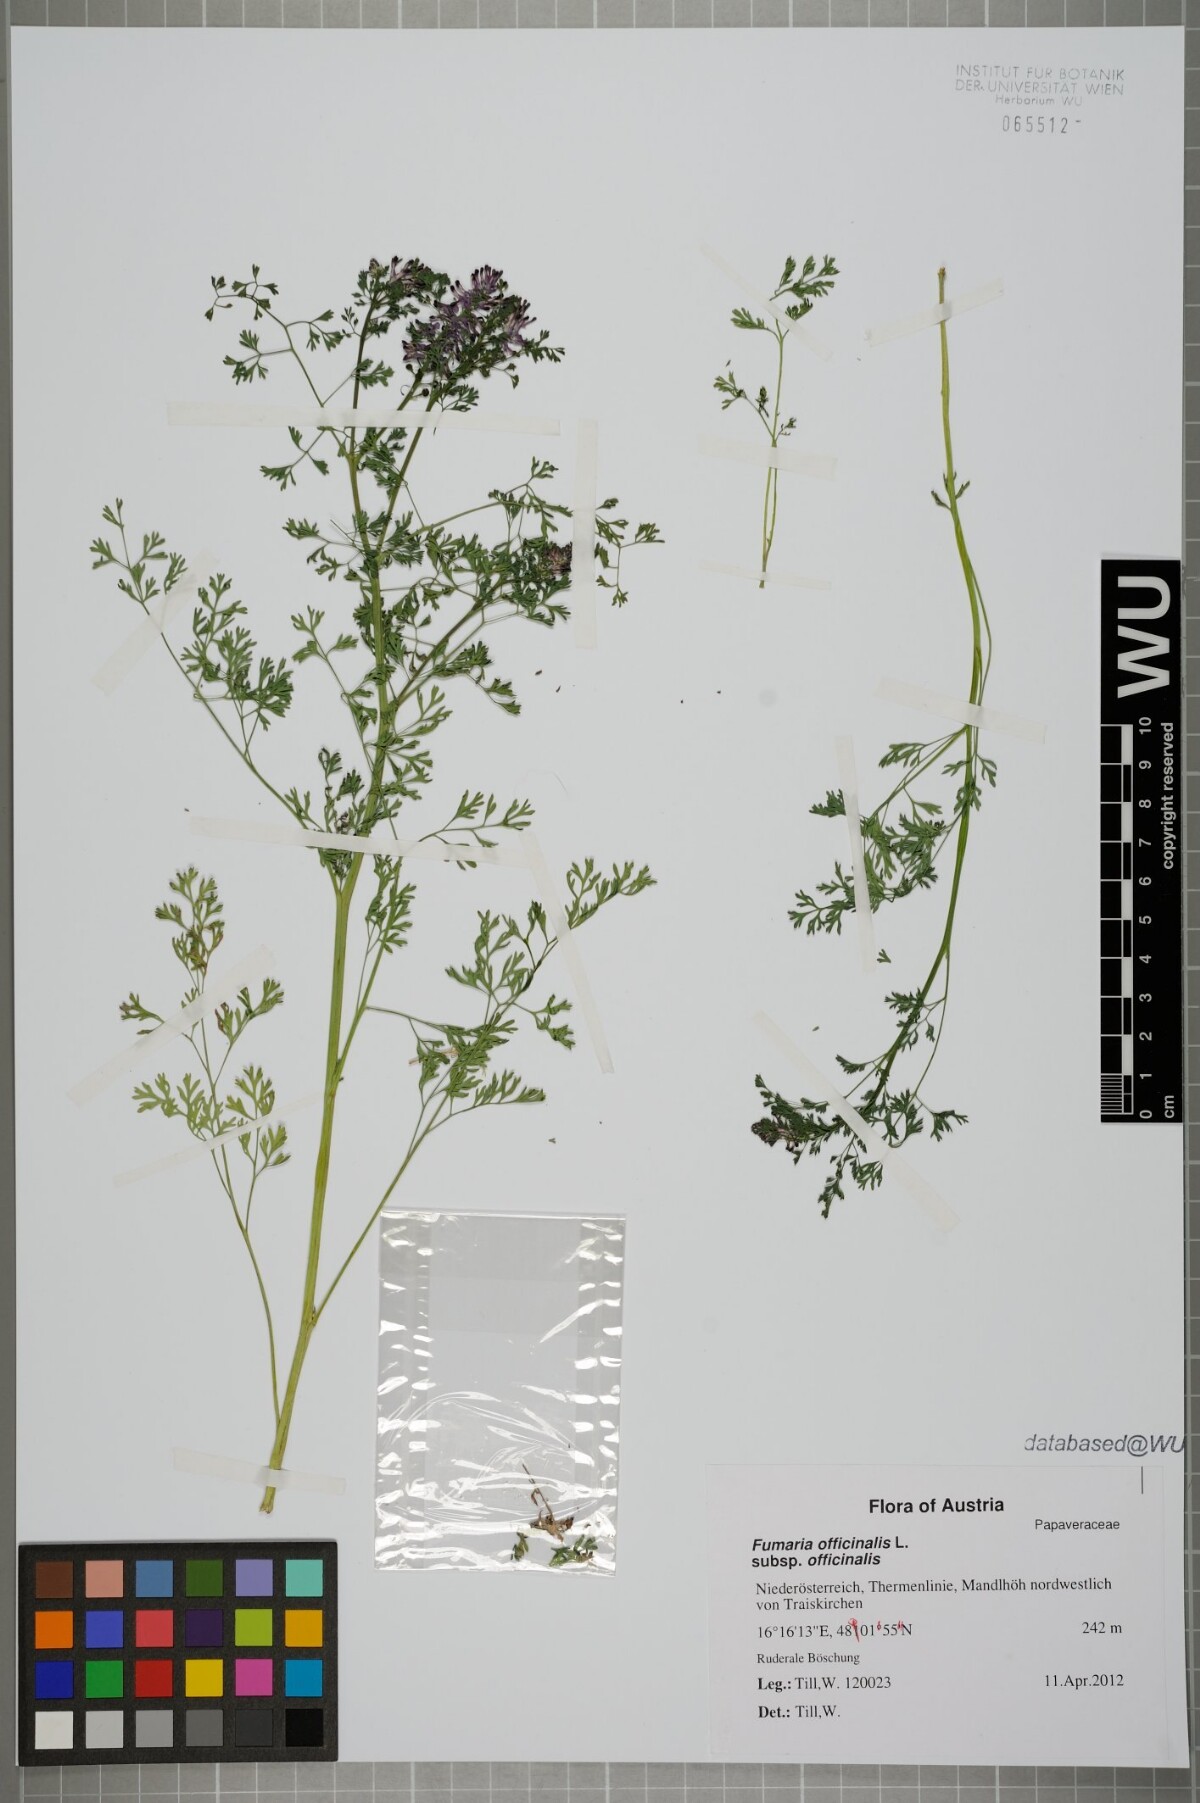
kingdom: Plantae
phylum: Tracheophyta
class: Magnoliopsida
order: Ranunculales
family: Papaveraceae
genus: Fumaria
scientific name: Fumaria officinalis
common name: Common fumitory
